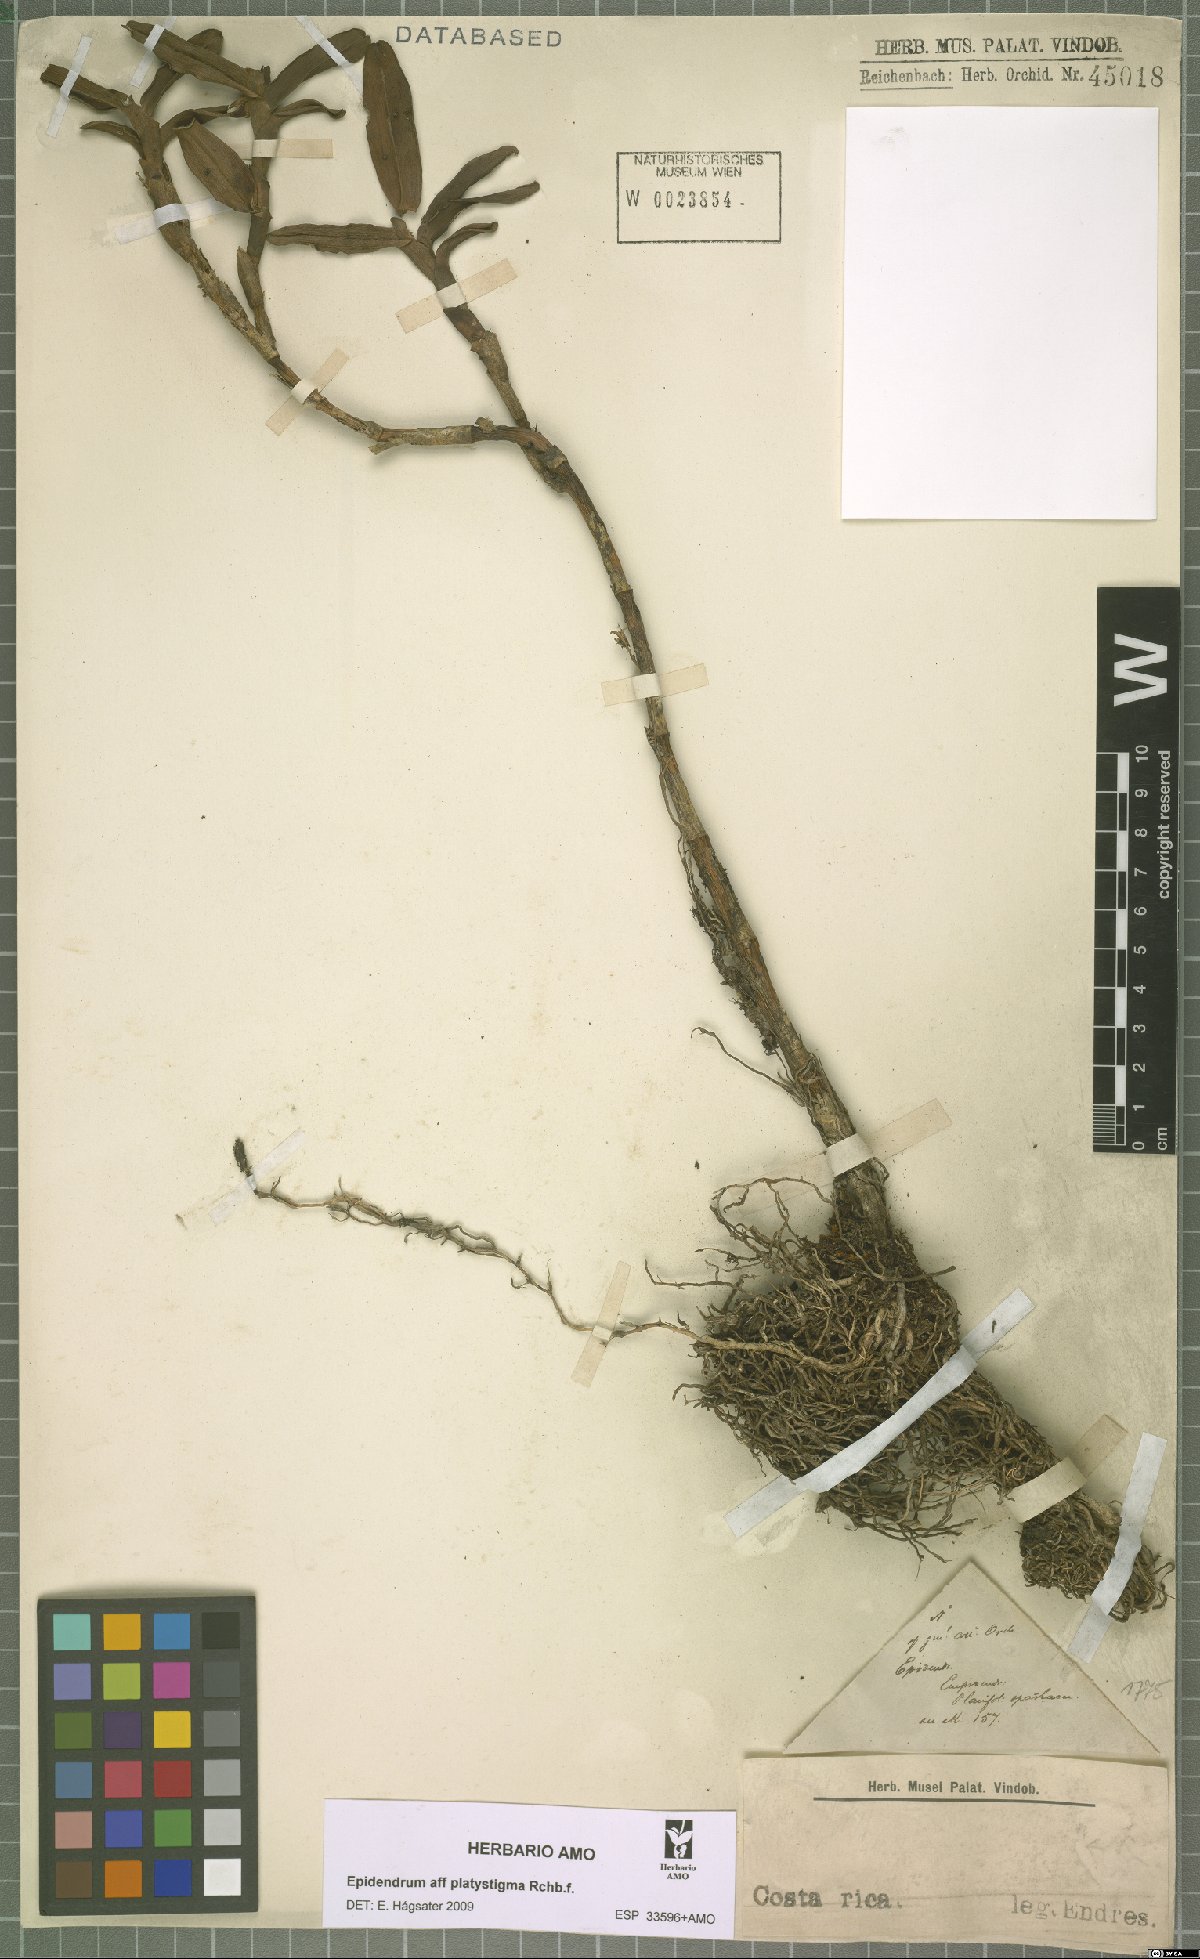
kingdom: Plantae
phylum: Tracheophyta
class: Liliopsida
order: Asparagales
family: Orchidaceae
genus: Epidendrum
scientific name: Epidendrum platystigma
